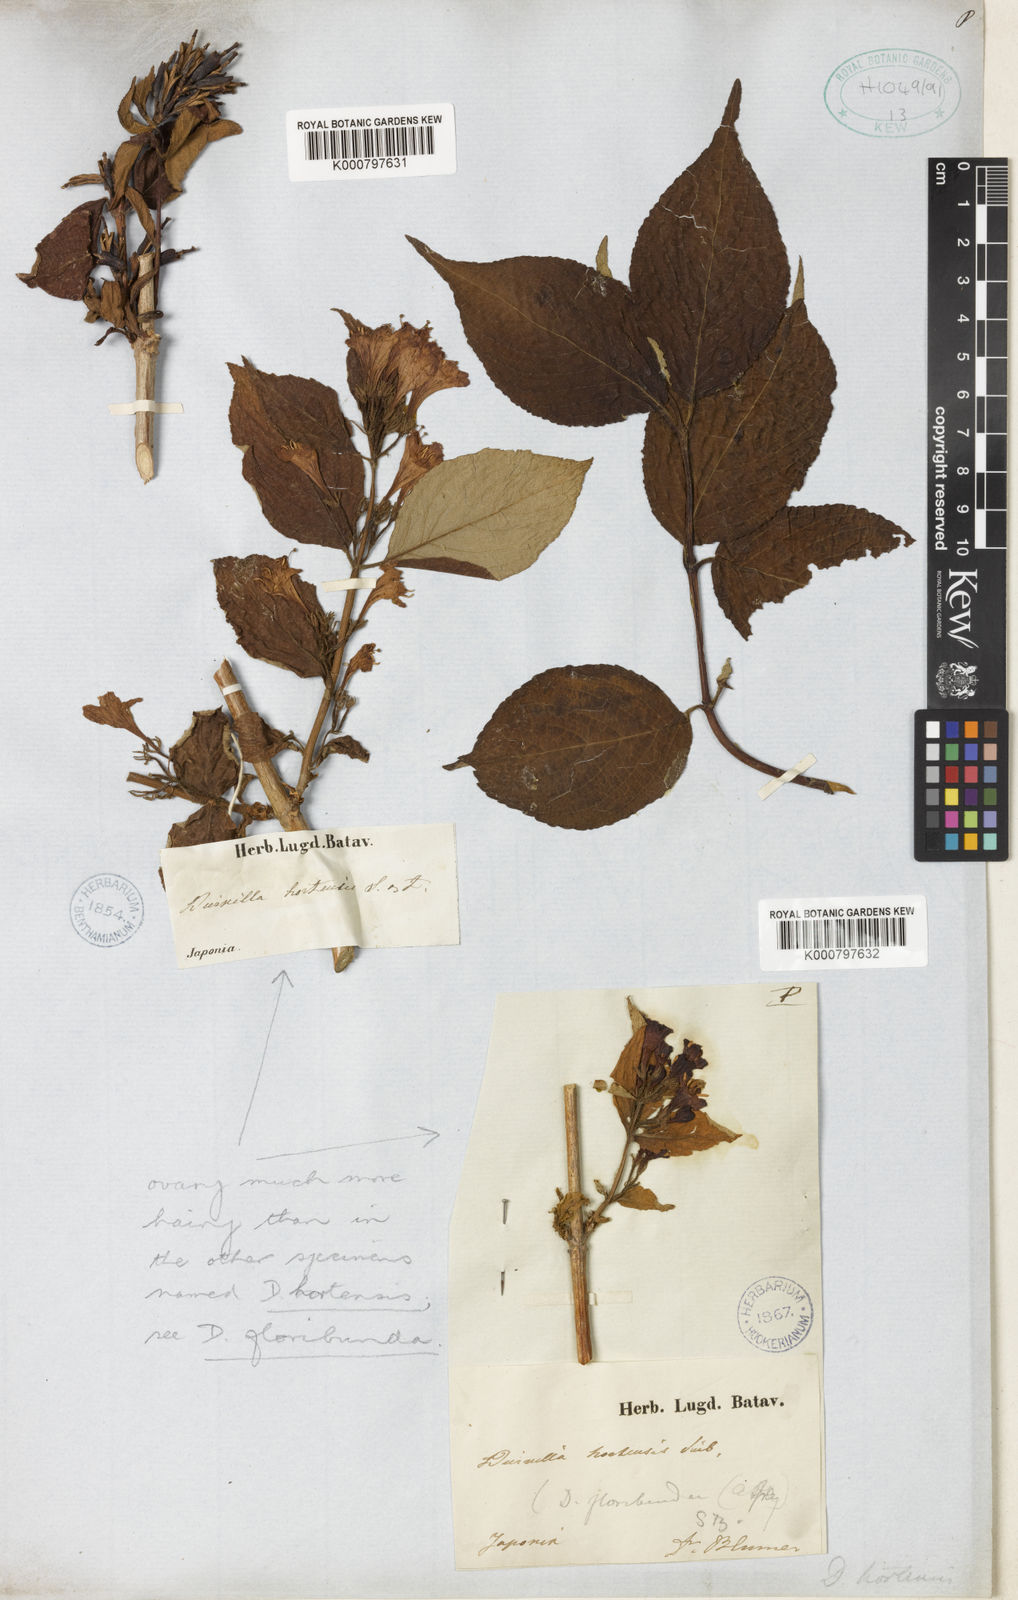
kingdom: Plantae
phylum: Tracheophyta
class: Magnoliopsida
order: Dipsacales
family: Caprifoliaceae
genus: Weigela
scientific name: Weigela
